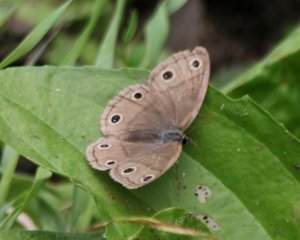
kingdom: Animalia
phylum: Arthropoda
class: Insecta
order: Lepidoptera
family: Nymphalidae
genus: Euptychia
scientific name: Euptychia cymela
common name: Little Wood Satyr
